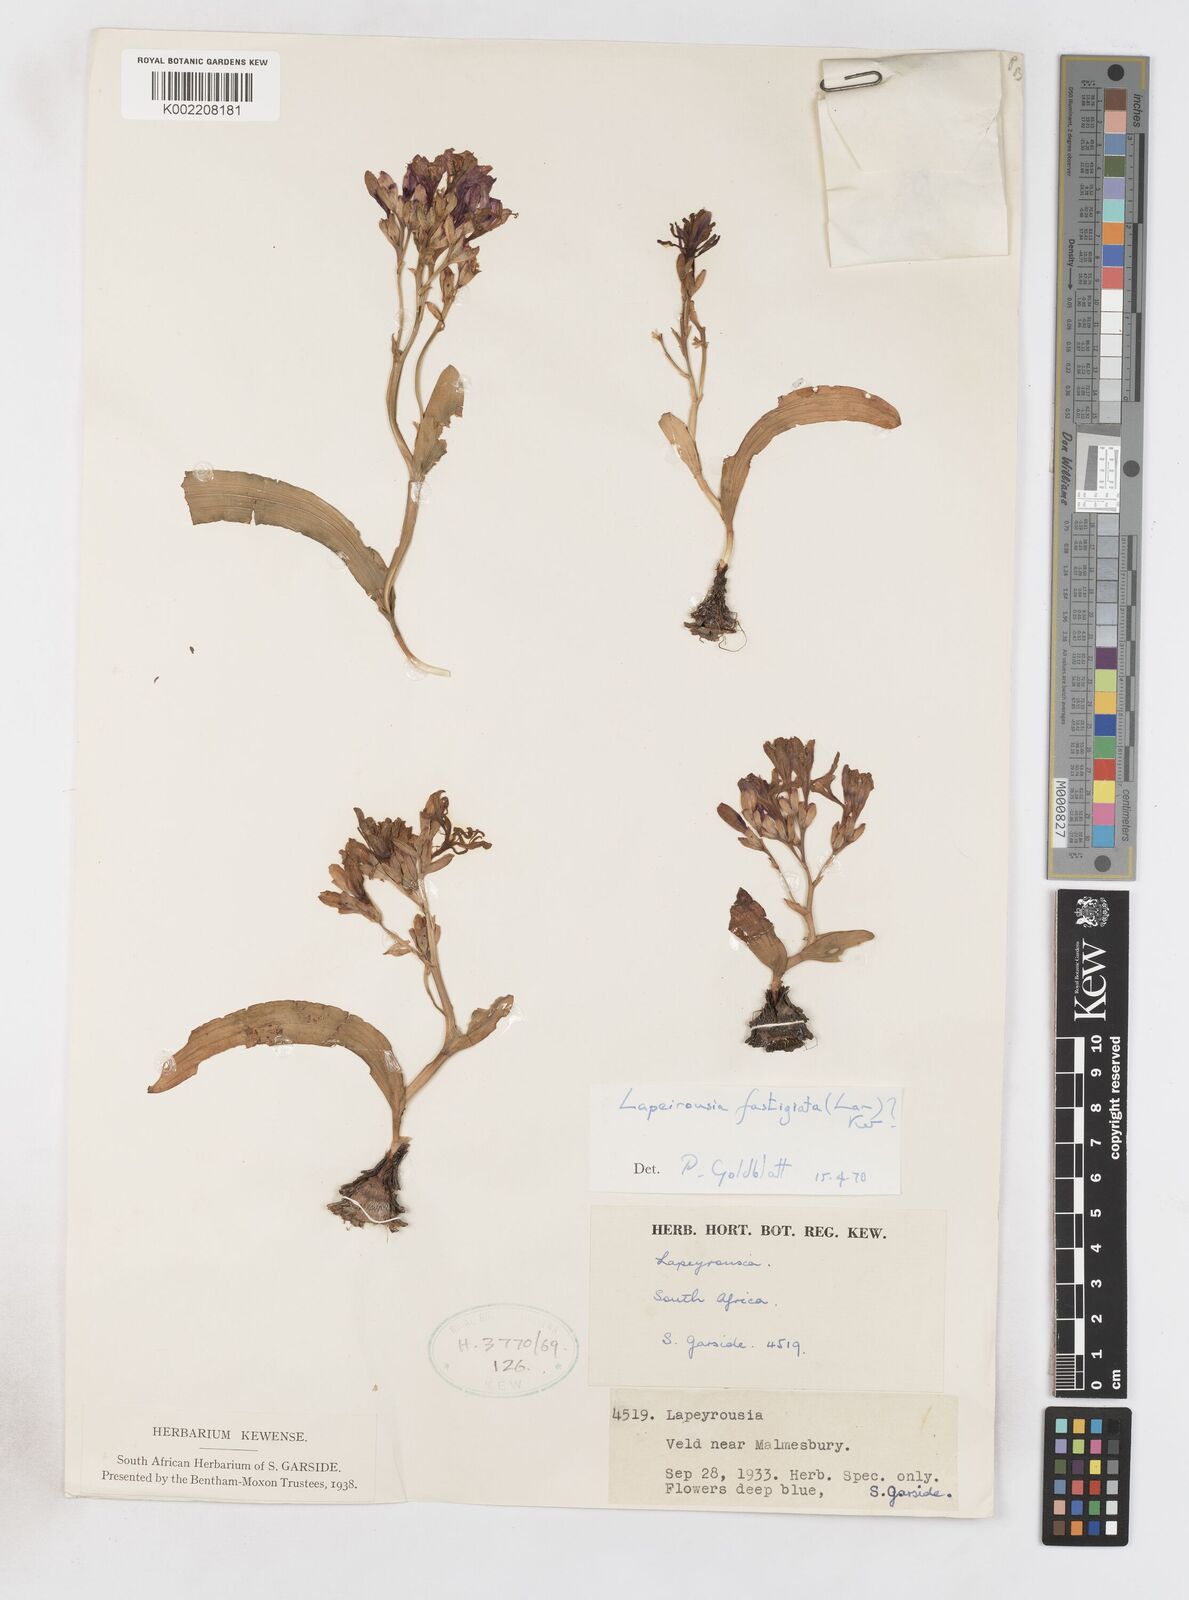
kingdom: Plantae
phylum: Tracheophyta
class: Liliopsida
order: Asparagales
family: Iridaceae
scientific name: Iridaceae
